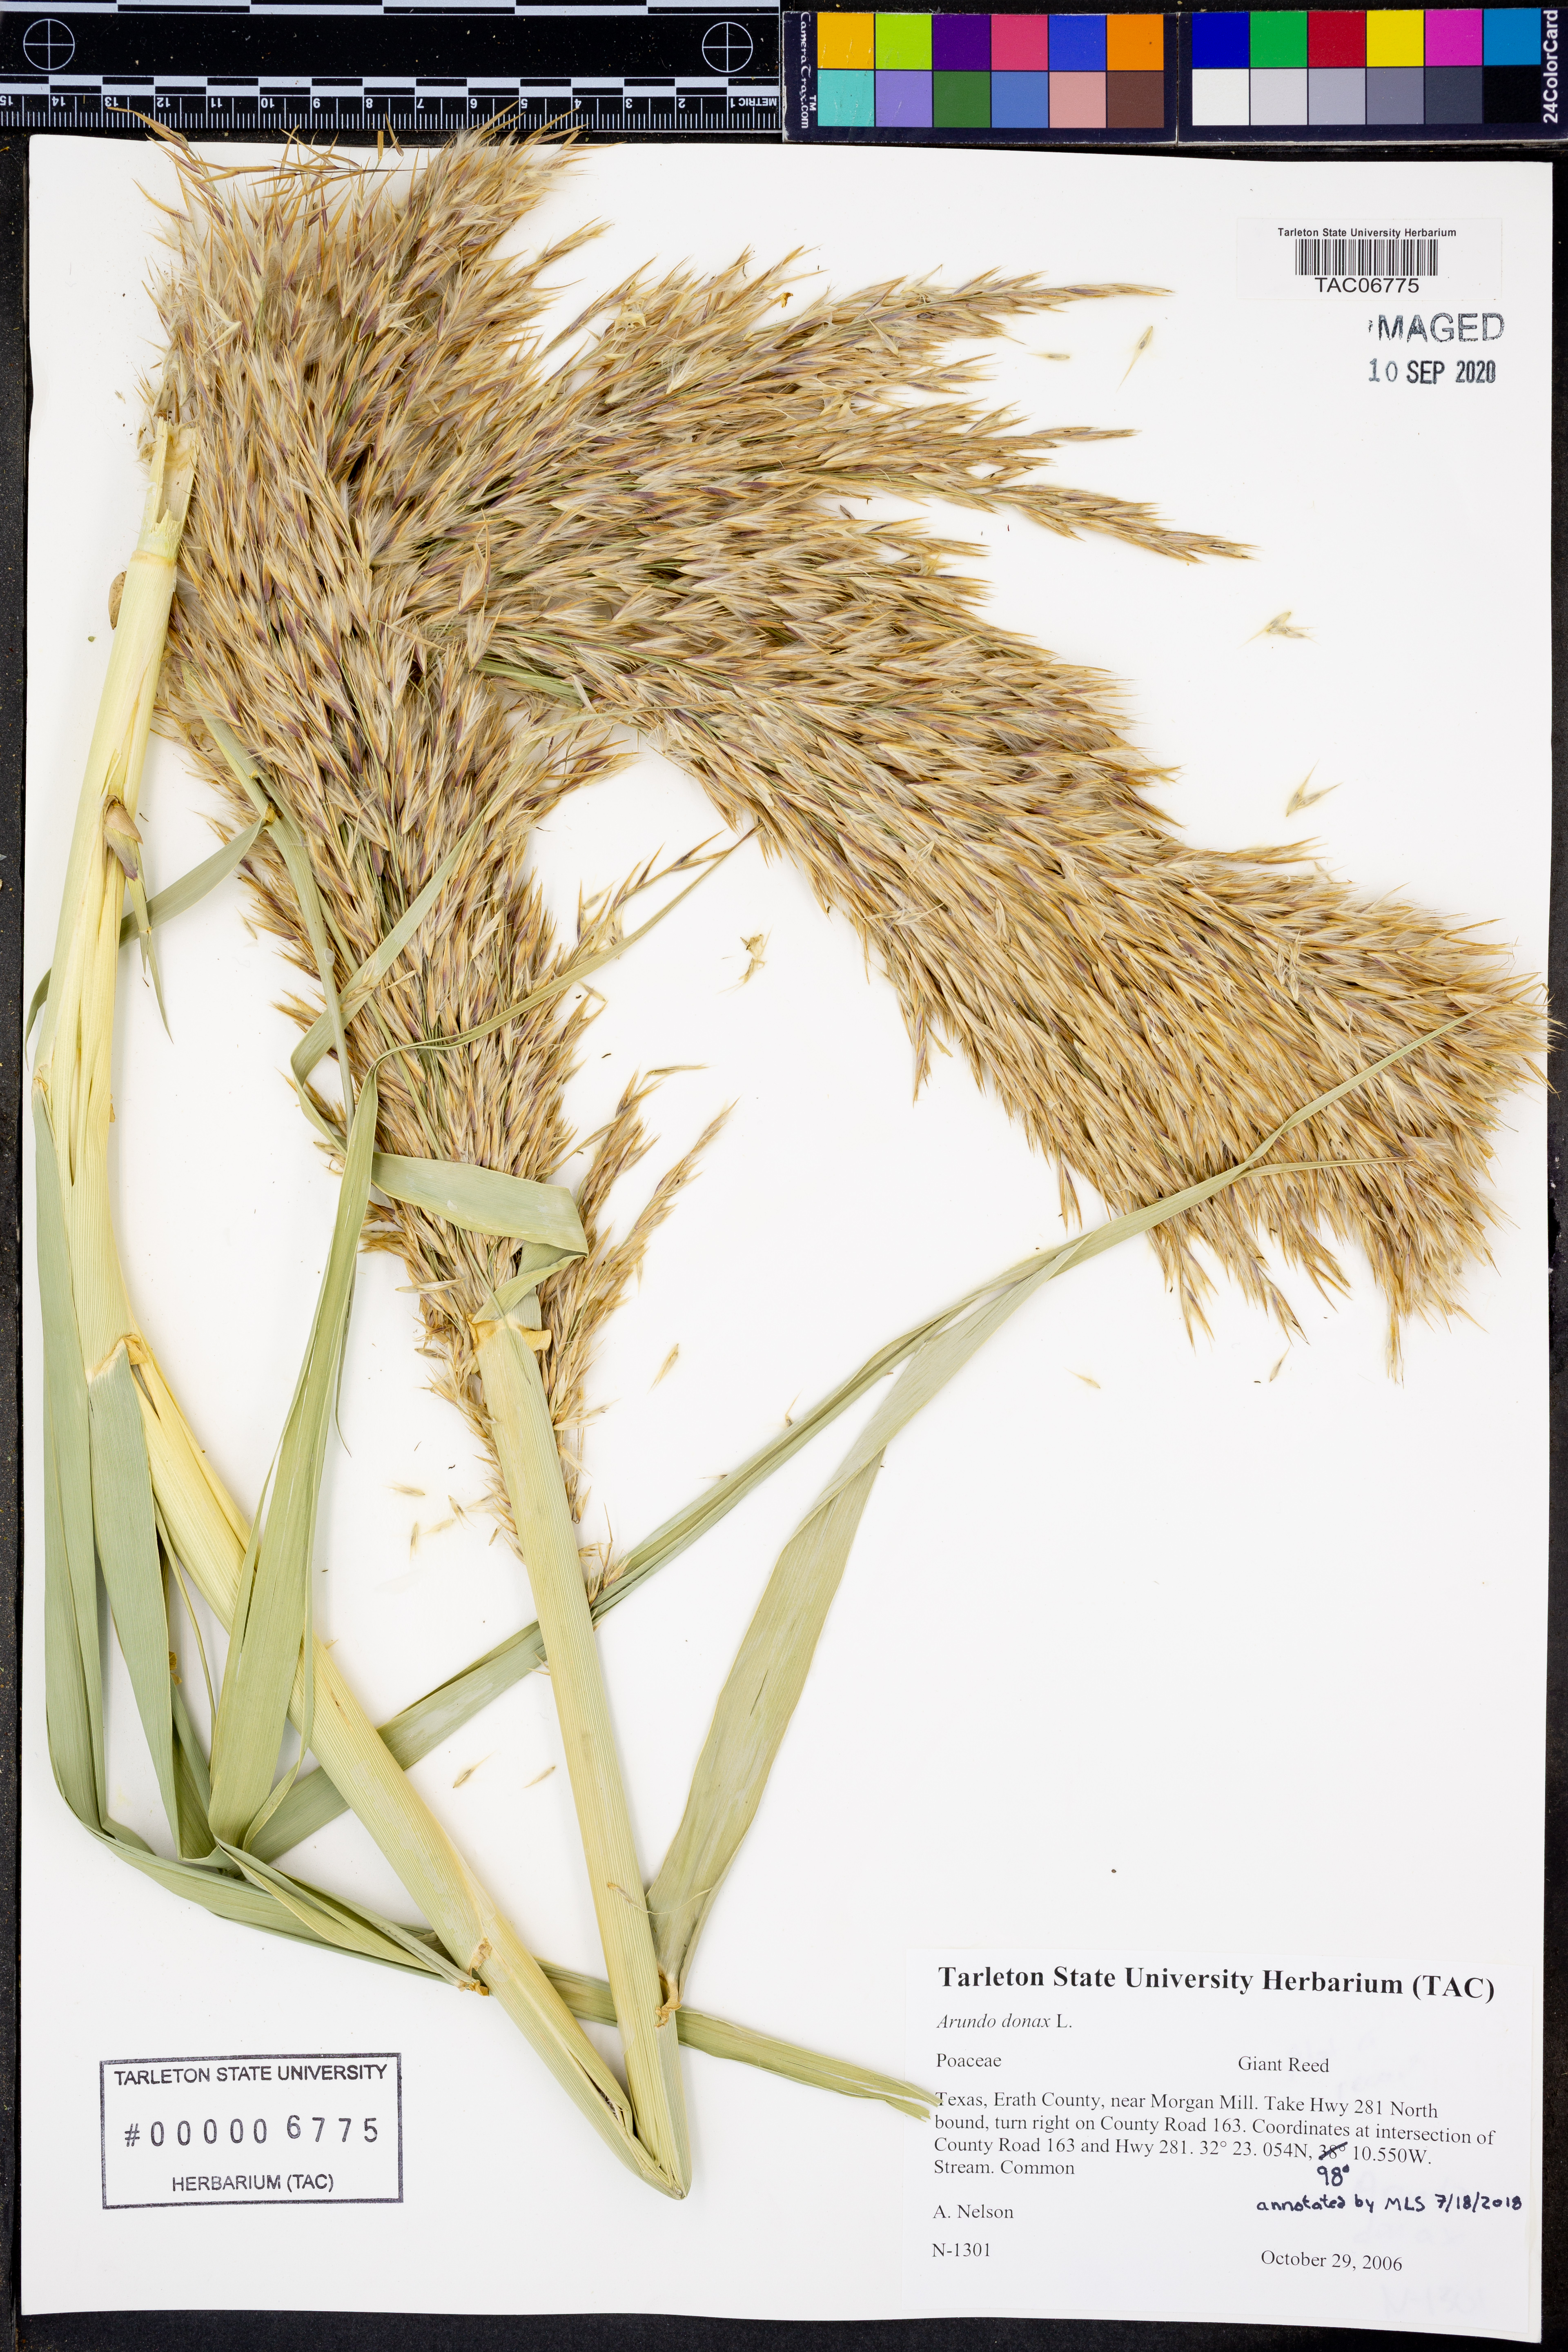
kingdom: Plantae
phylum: Tracheophyta
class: Liliopsida
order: Poales
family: Poaceae
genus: Arundo
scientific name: Arundo donax
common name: Giant reed
